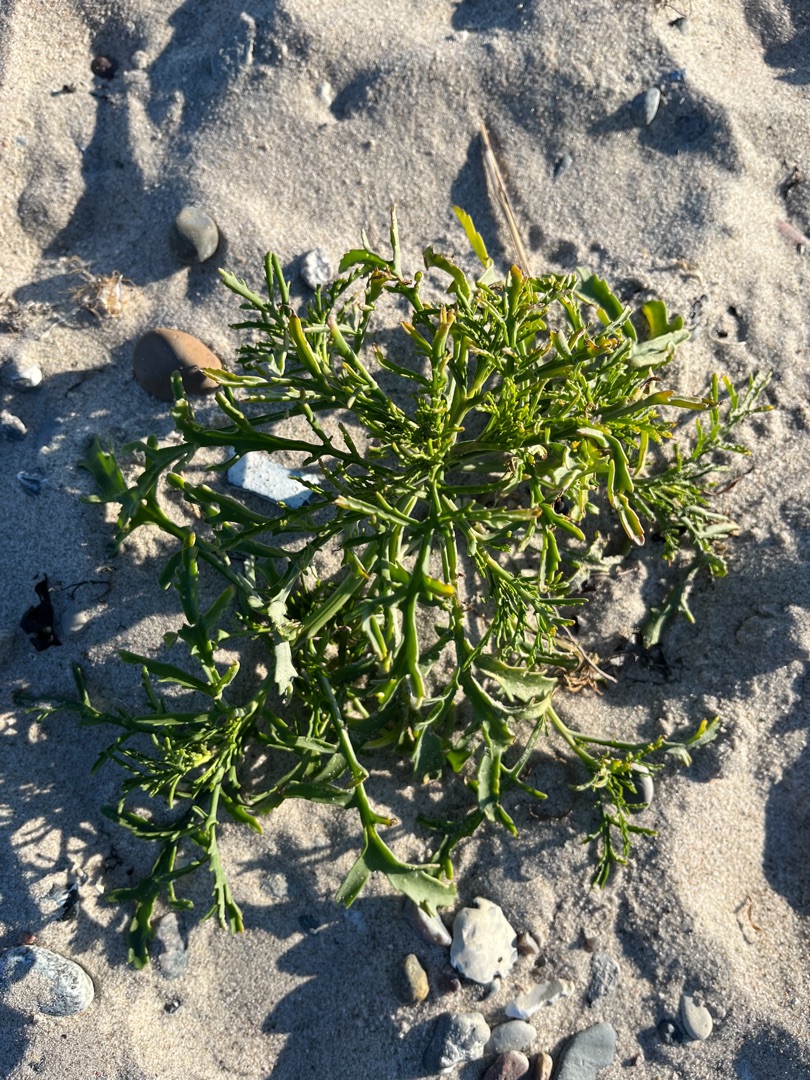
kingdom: Plantae
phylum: Tracheophyta
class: Magnoliopsida
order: Brassicales
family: Brassicaceae
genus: Cakile
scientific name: Cakile maritima
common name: Strandsennep
